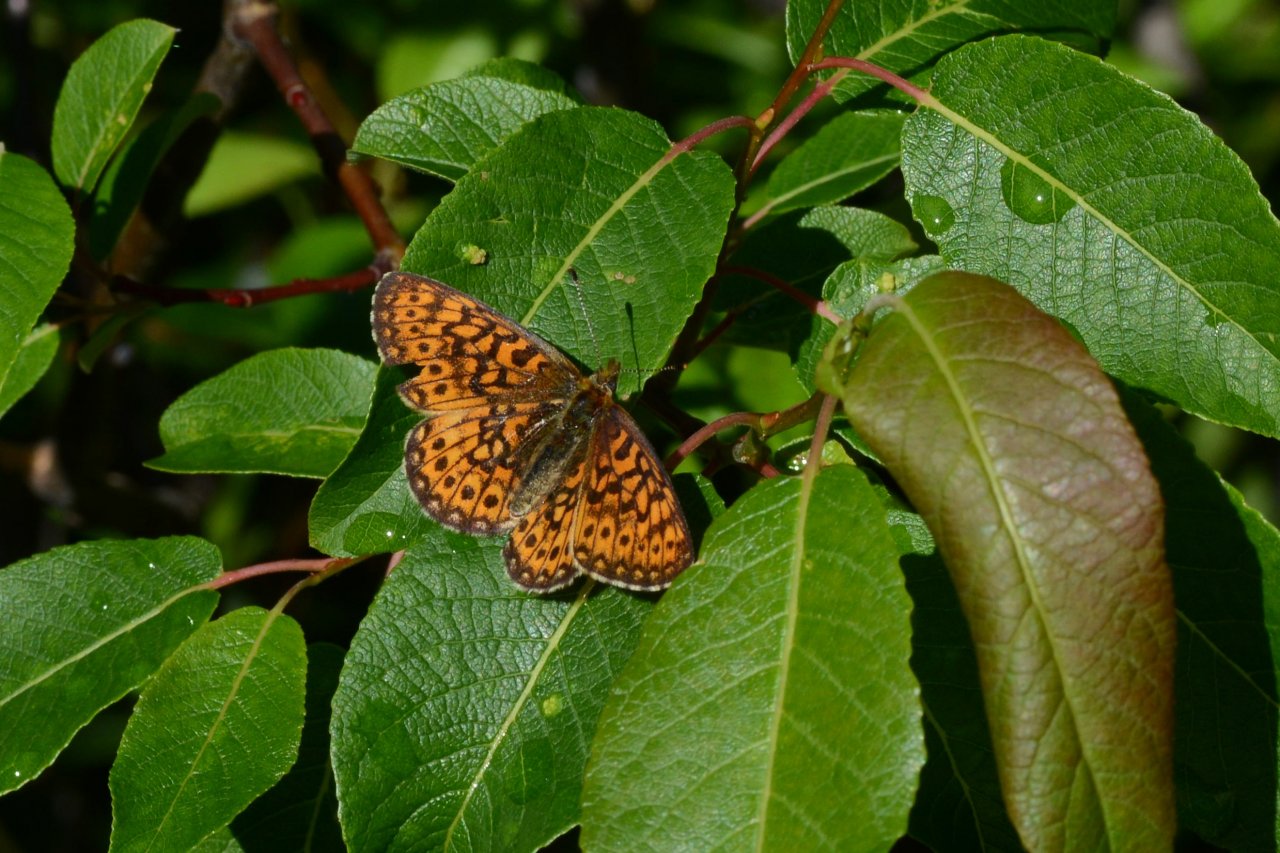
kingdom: Animalia
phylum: Arthropoda
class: Insecta
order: Lepidoptera
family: Nymphalidae
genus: Boloria
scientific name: Boloria eunomia
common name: Bog Fritillary
